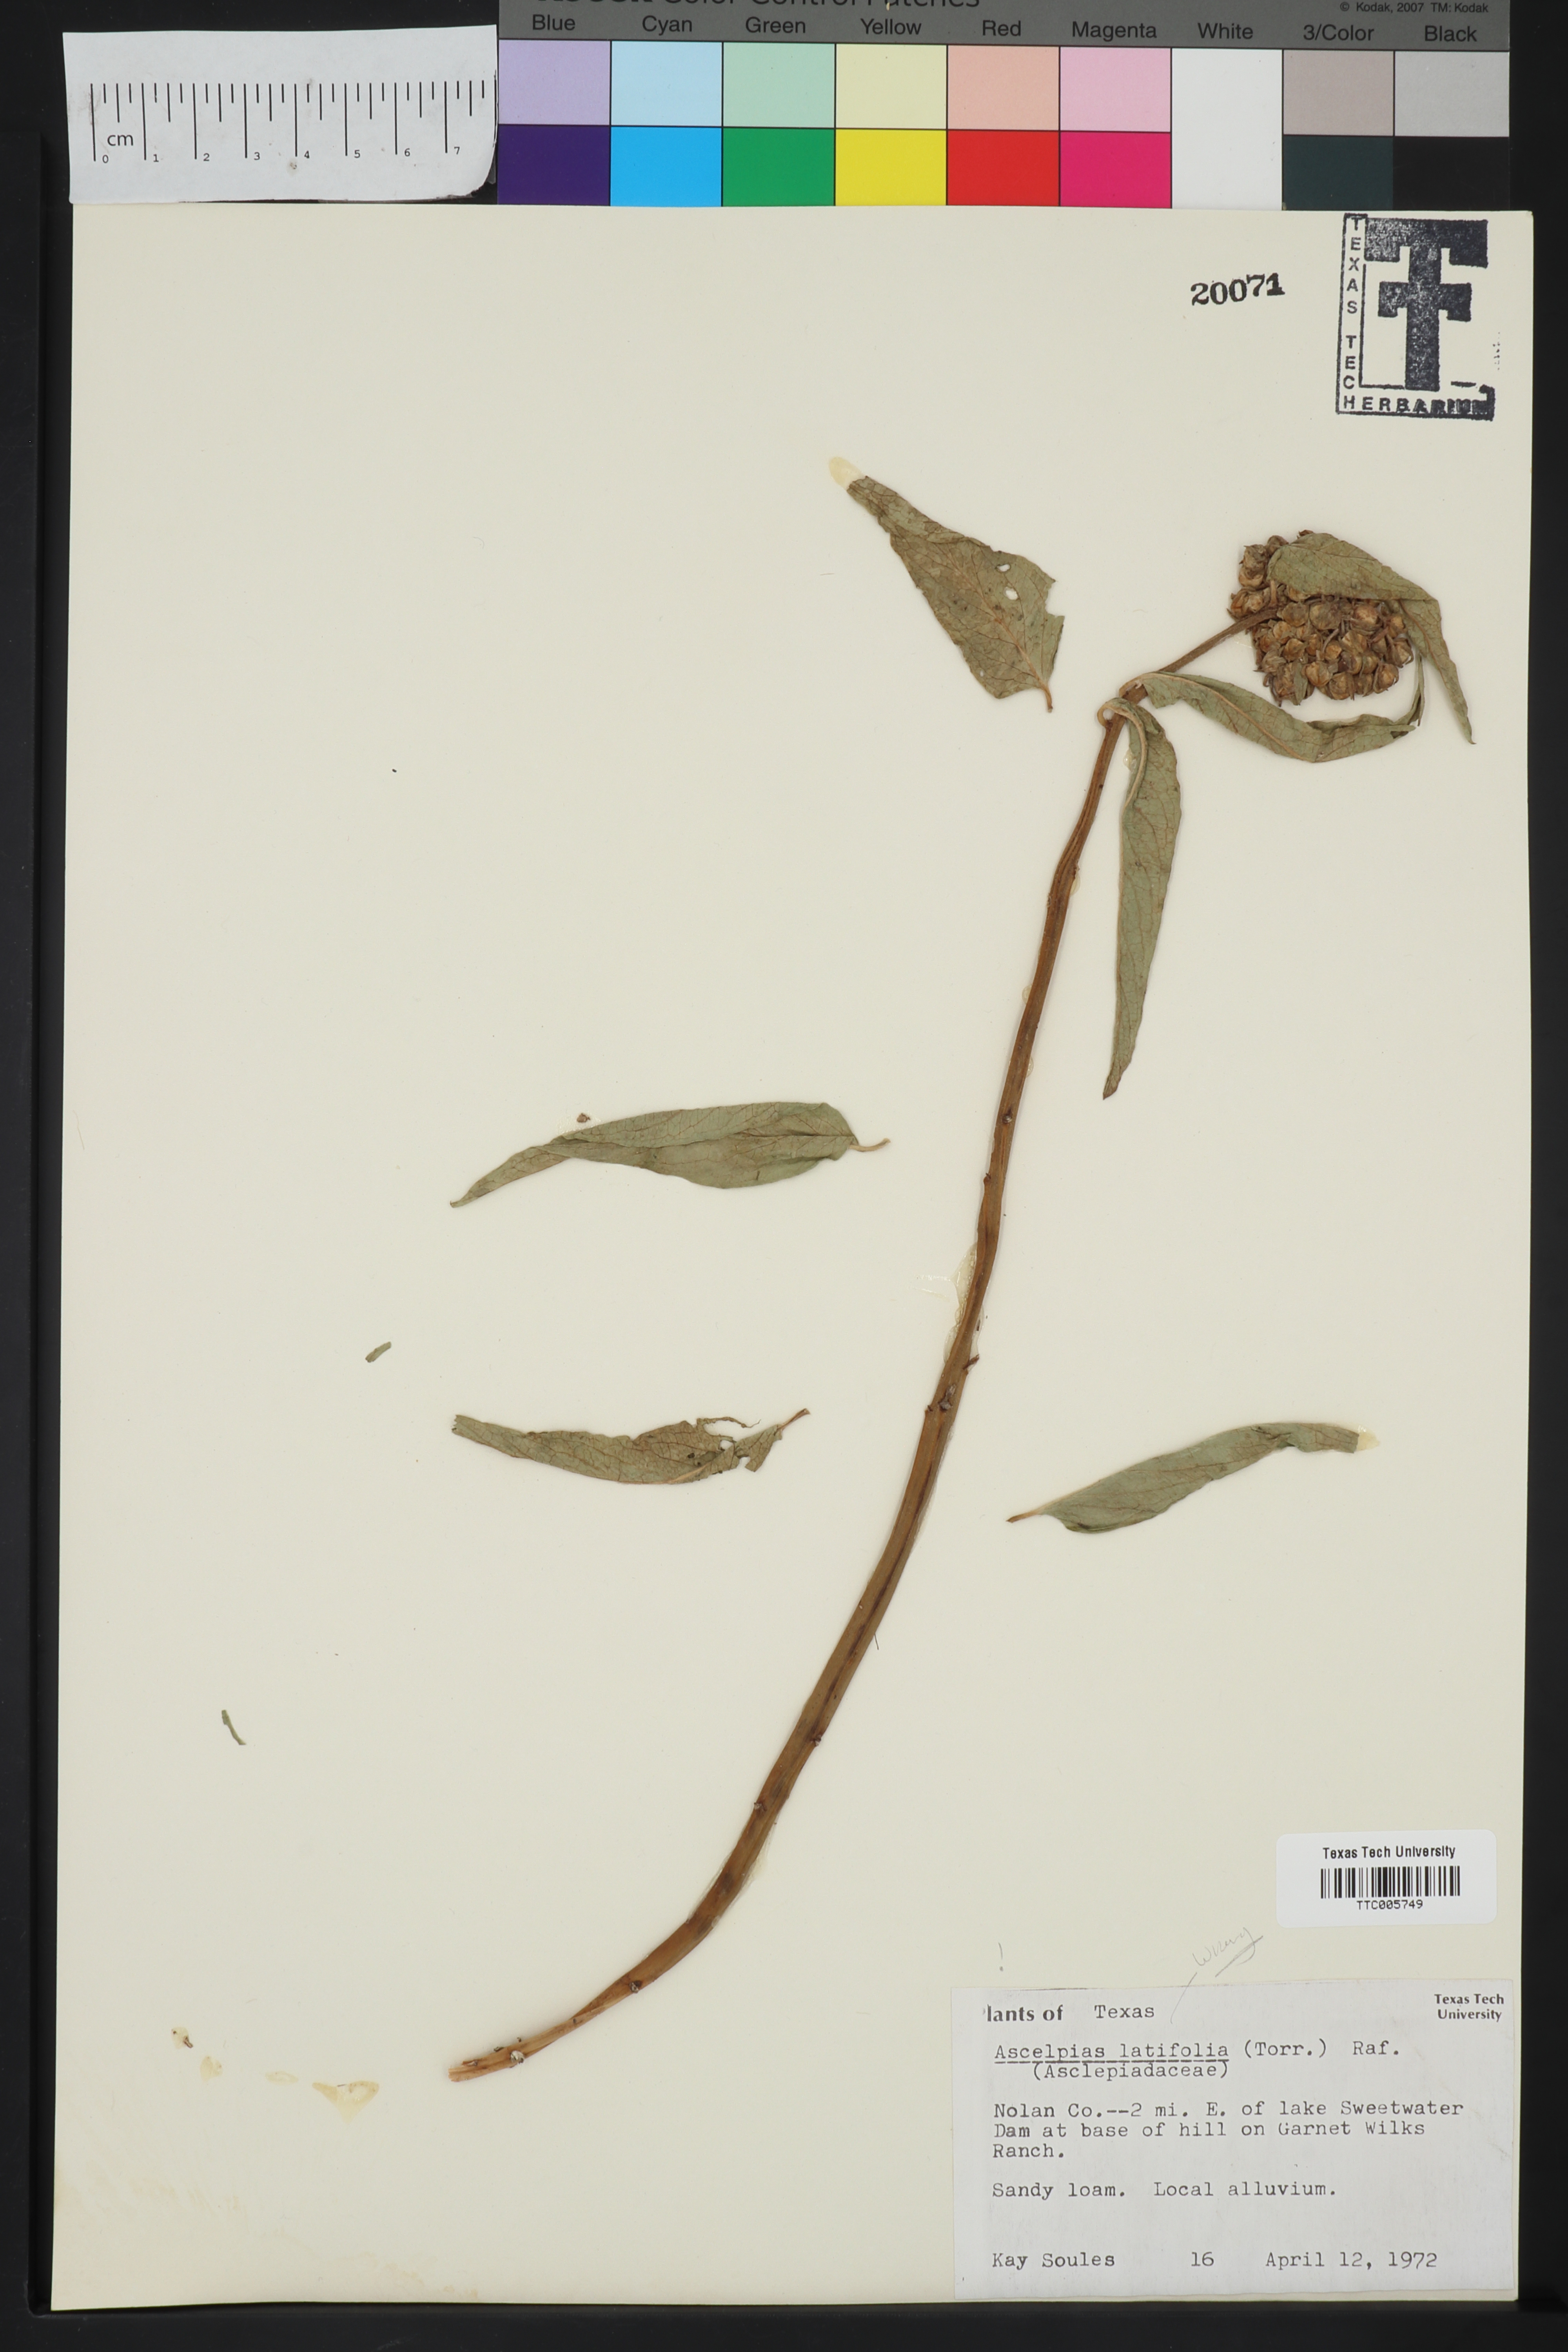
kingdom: Plantae
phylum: Tracheophyta
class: Magnoliopsida
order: Gentianales
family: Apocynaceae
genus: Asclepias
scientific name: Asclepias latifolia
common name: Broadleaf milkweed
